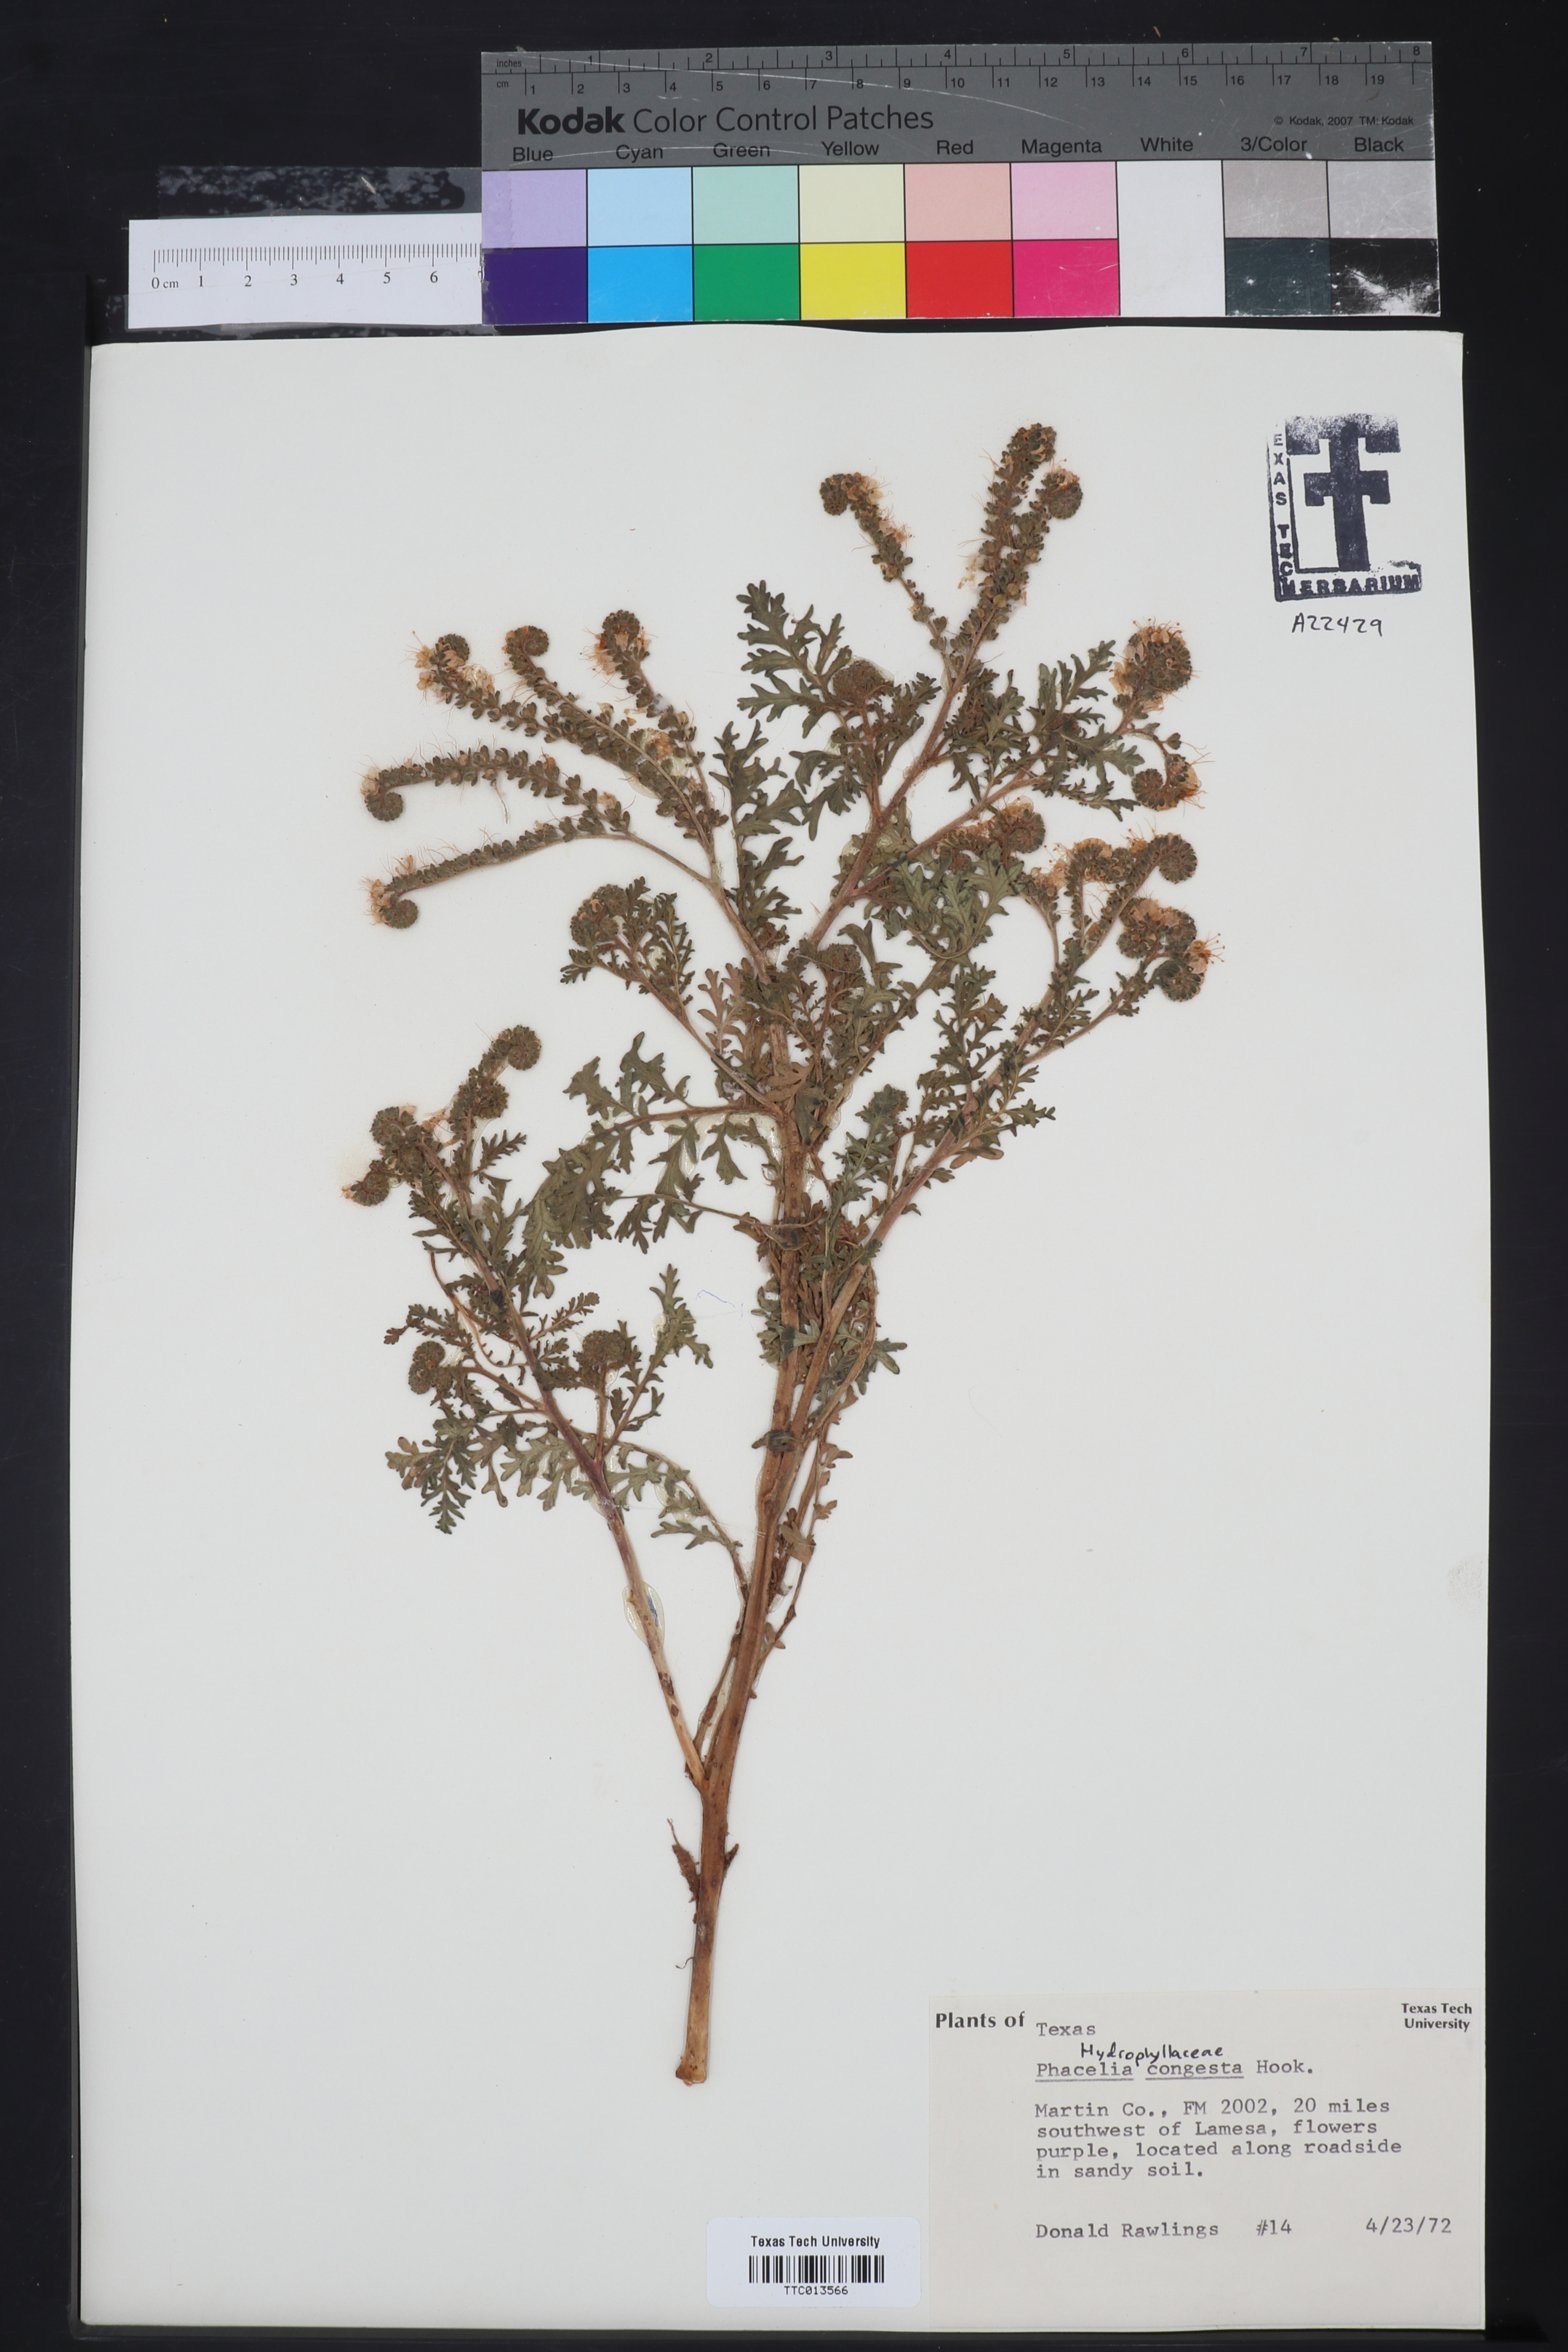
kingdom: Plantae
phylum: Tracheophyta
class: Magnoliopsida
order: Boraginales
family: Hydrophyllaceae
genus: Phacelia
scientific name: Phacelia congesta
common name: Blue curls
